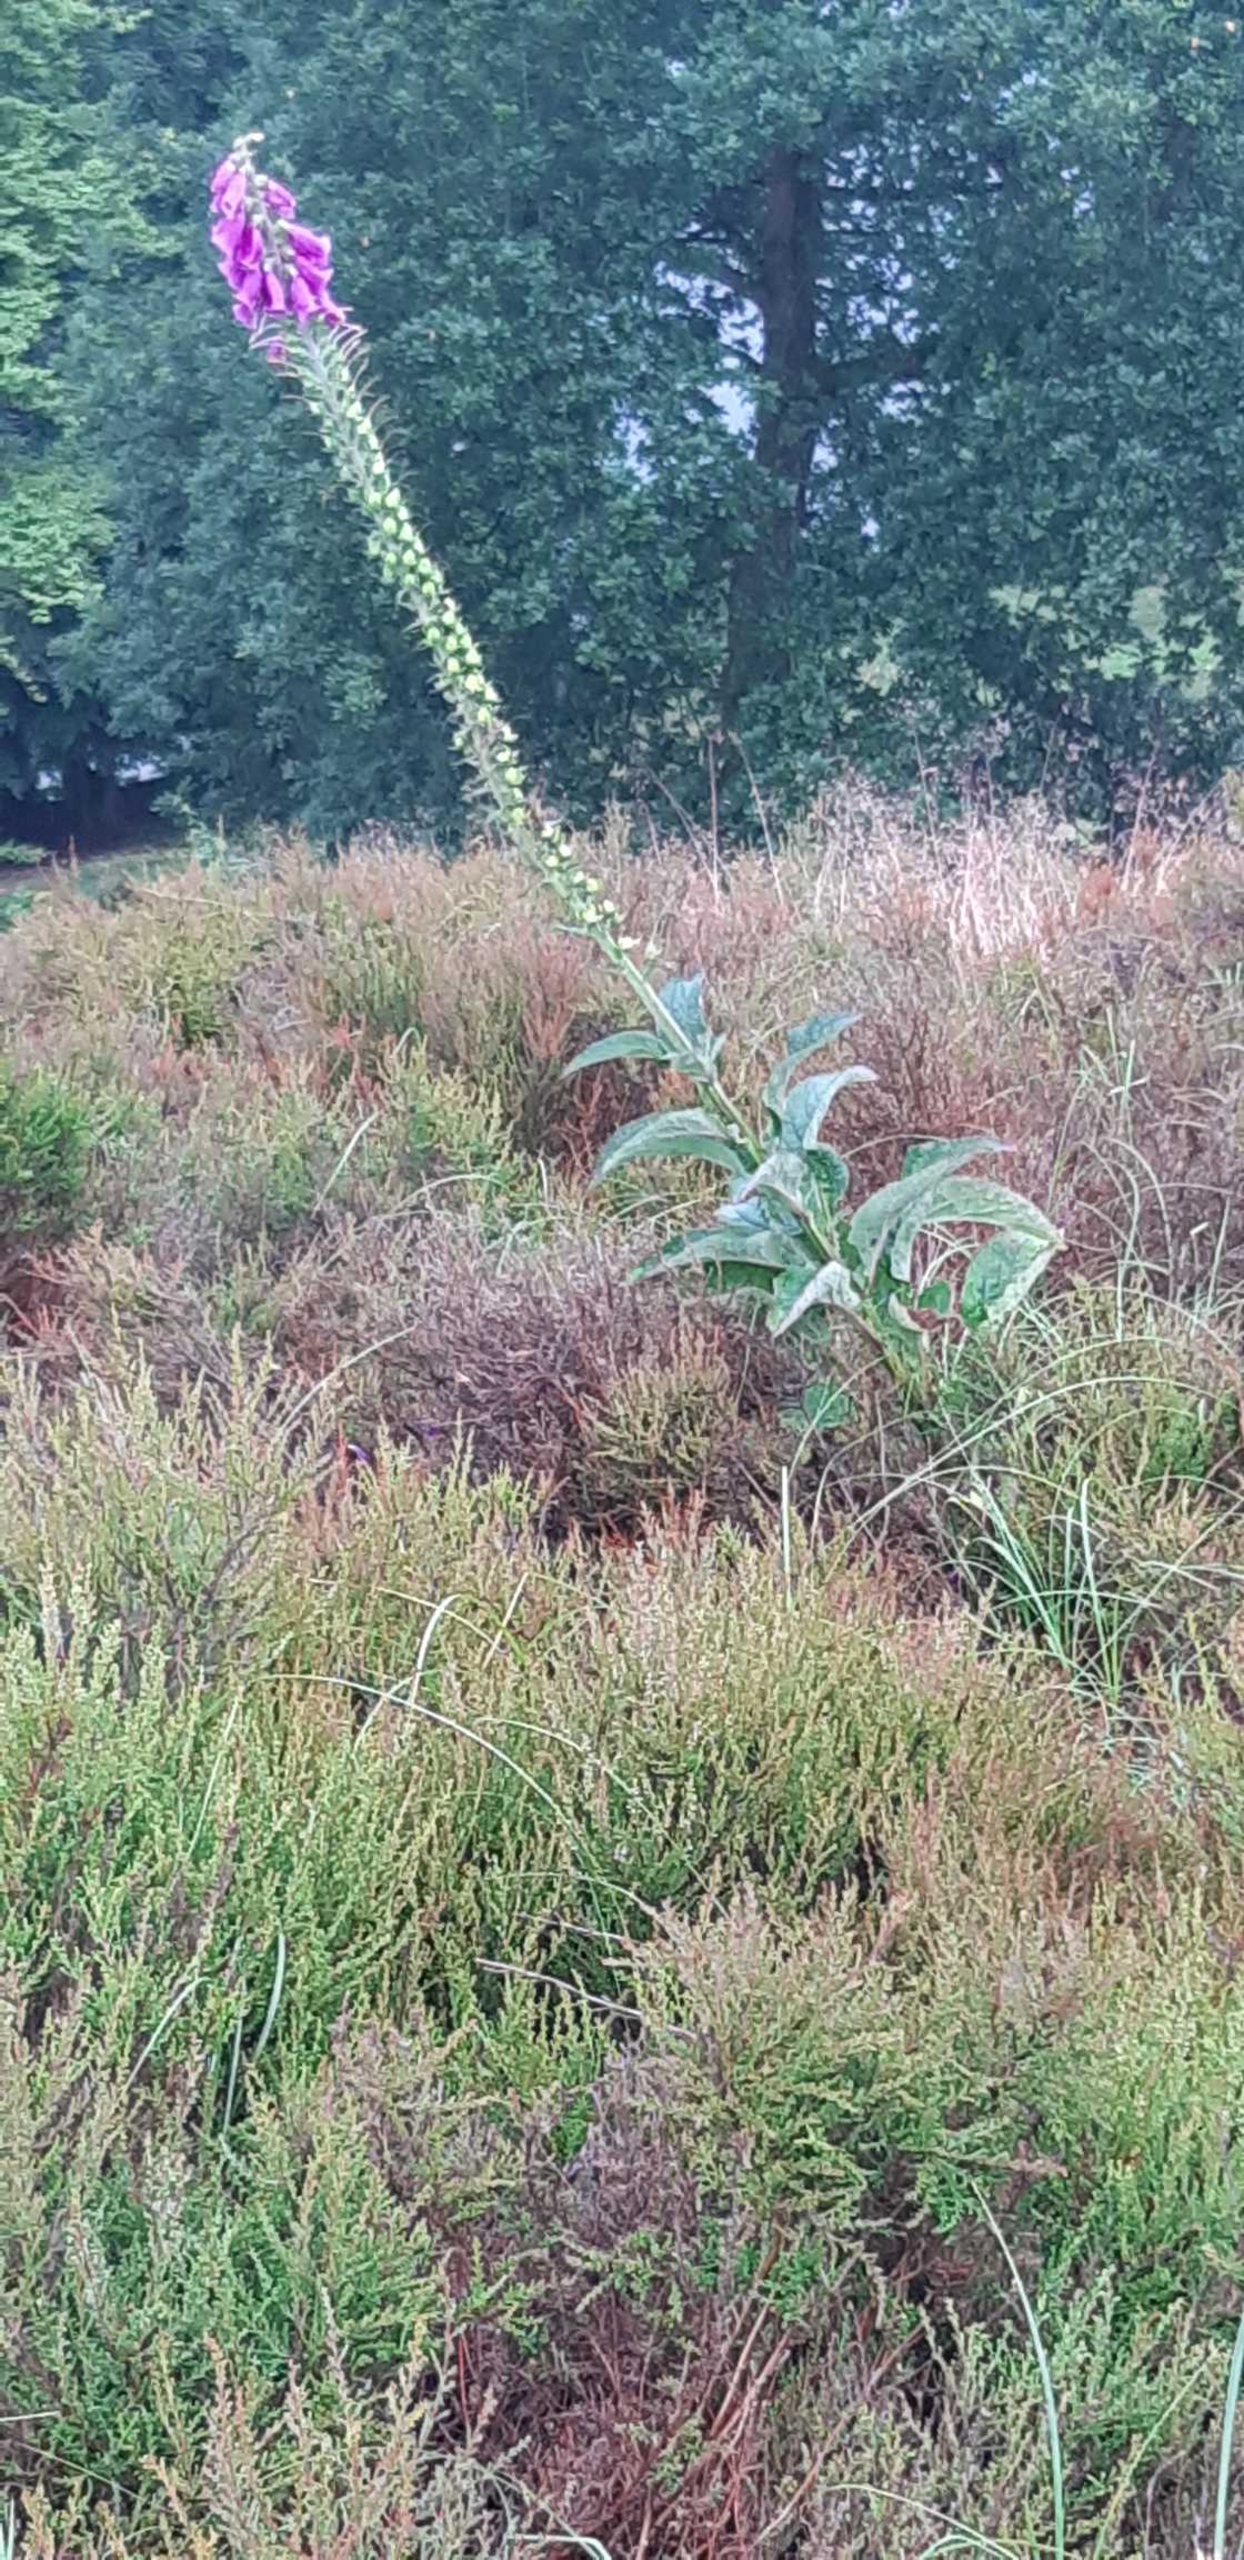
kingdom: Plantae
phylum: Tracheophyta
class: Magnoliopsida
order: Lamiales
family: Plantaginaceae
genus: Digitalis
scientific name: Digitalis purpurea
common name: Almindelig fingerbøl
